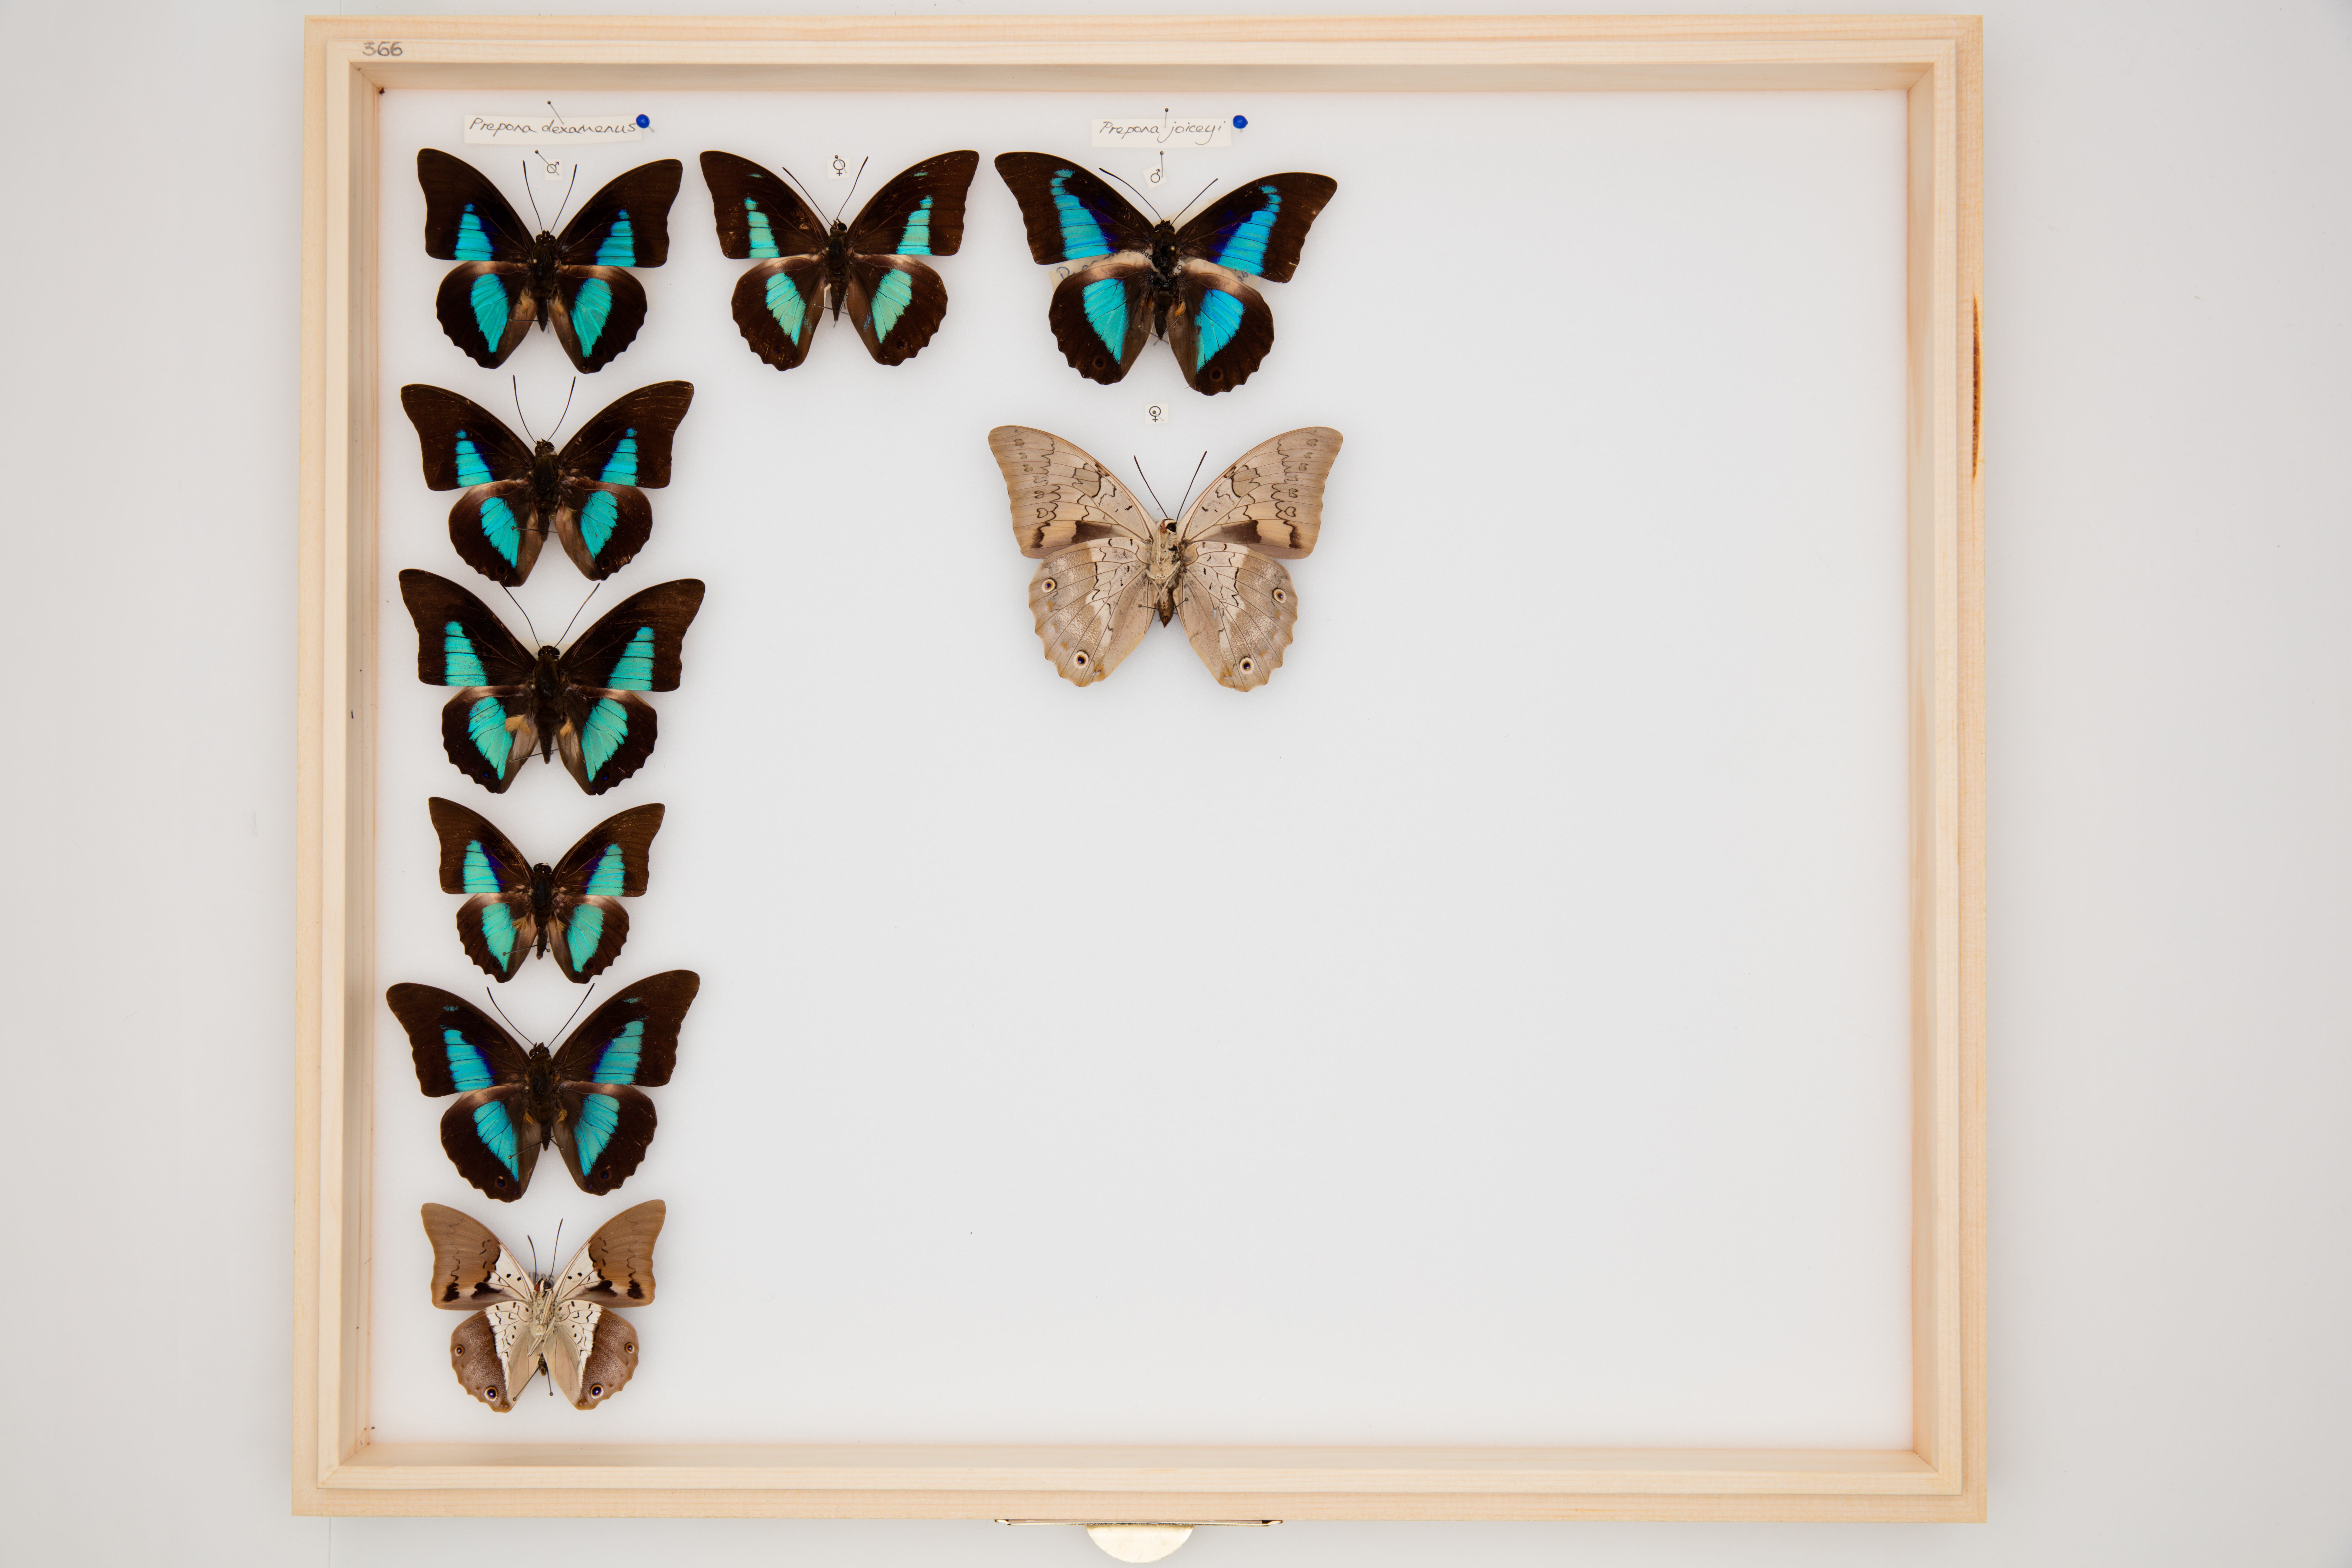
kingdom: Animalia
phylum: Arthropoda
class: Insecta
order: Lepidoptera
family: Nymphalidae
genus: Prepona
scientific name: Prepona dexamenes
